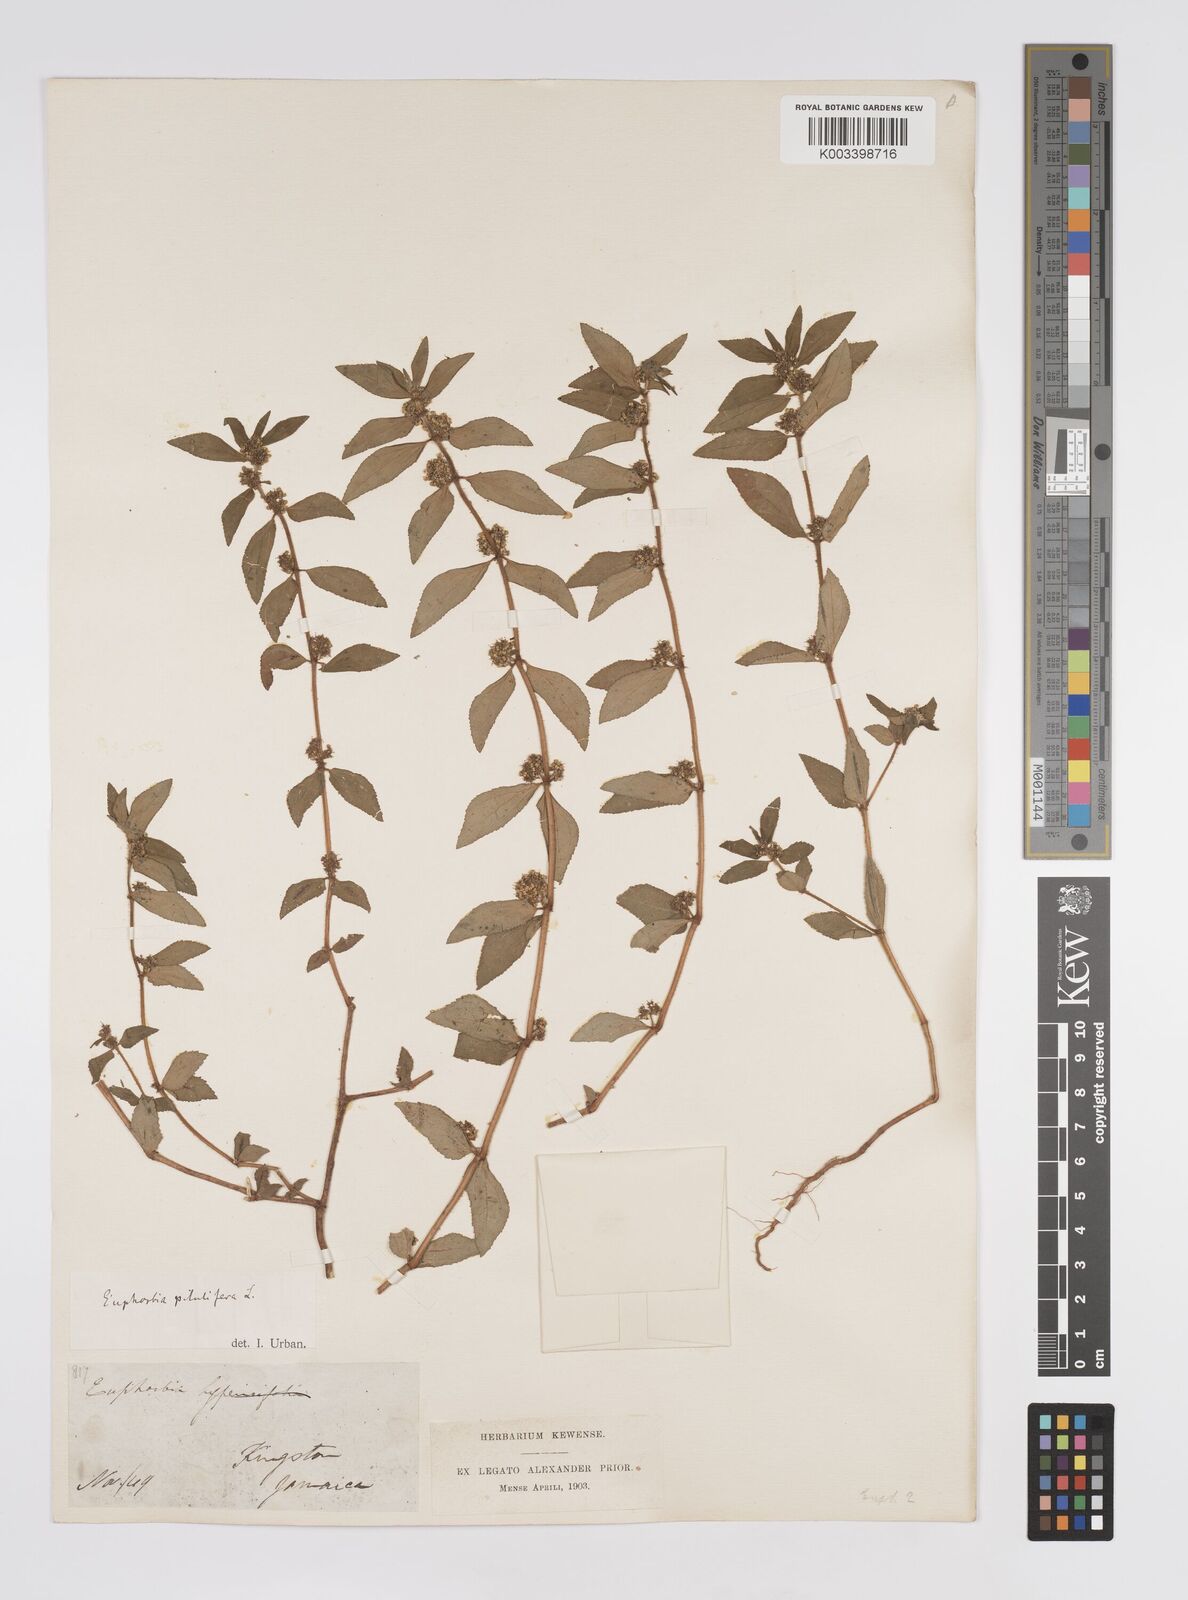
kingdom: Plantae
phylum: Tracheophyta
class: Magnoliopsida
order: Malpighiales
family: Euphorbiaceae
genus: Euphorbia
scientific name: Euphorbia hirta
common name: Pillpod sandmat
